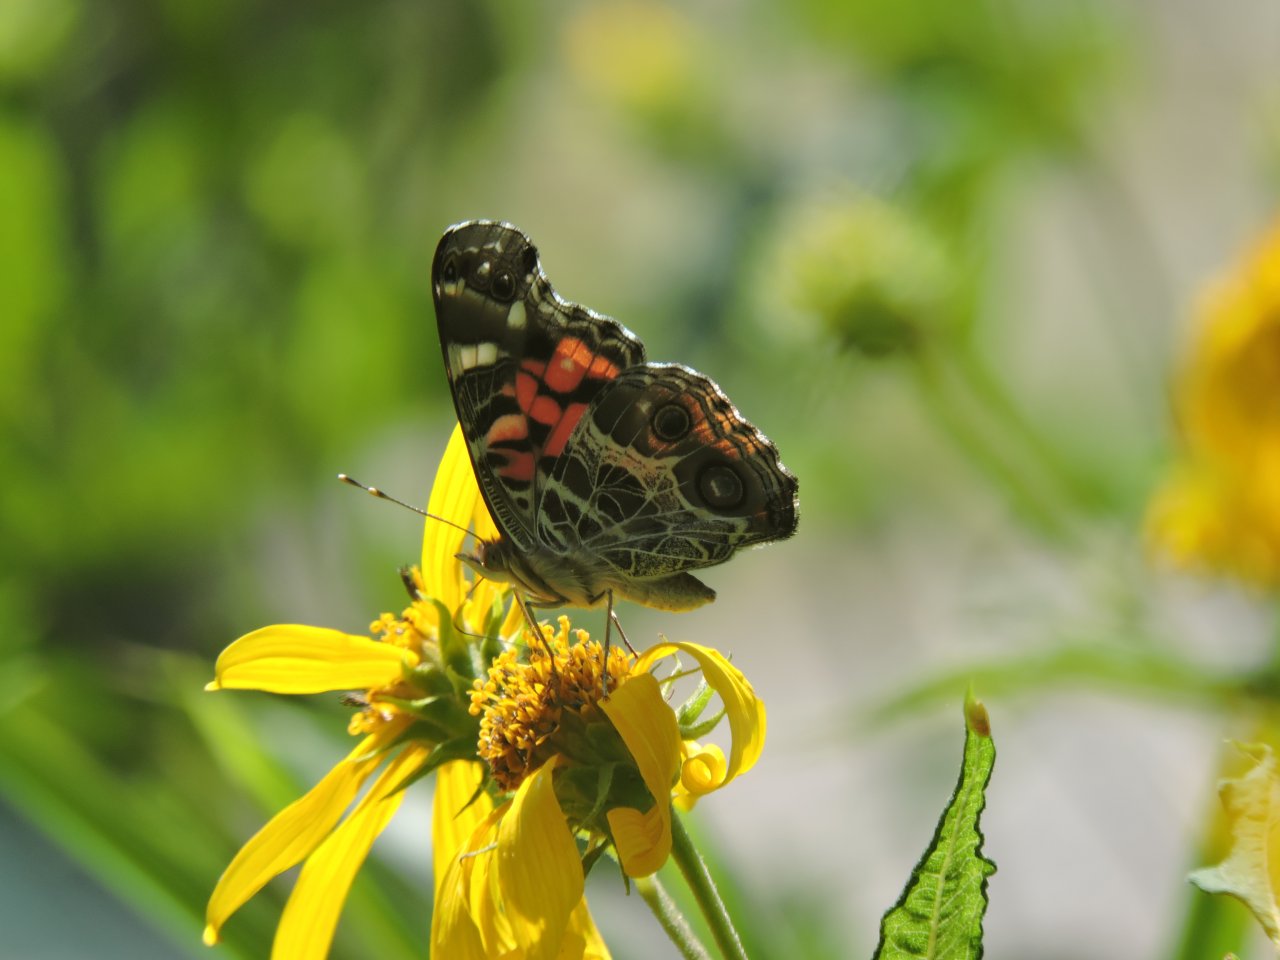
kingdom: Animalia
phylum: Arthropoda
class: Insecta
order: Lepidoptera
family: Nymphalidae
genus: Vanessa
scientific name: Vanessa virginiensis
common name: American Lady
